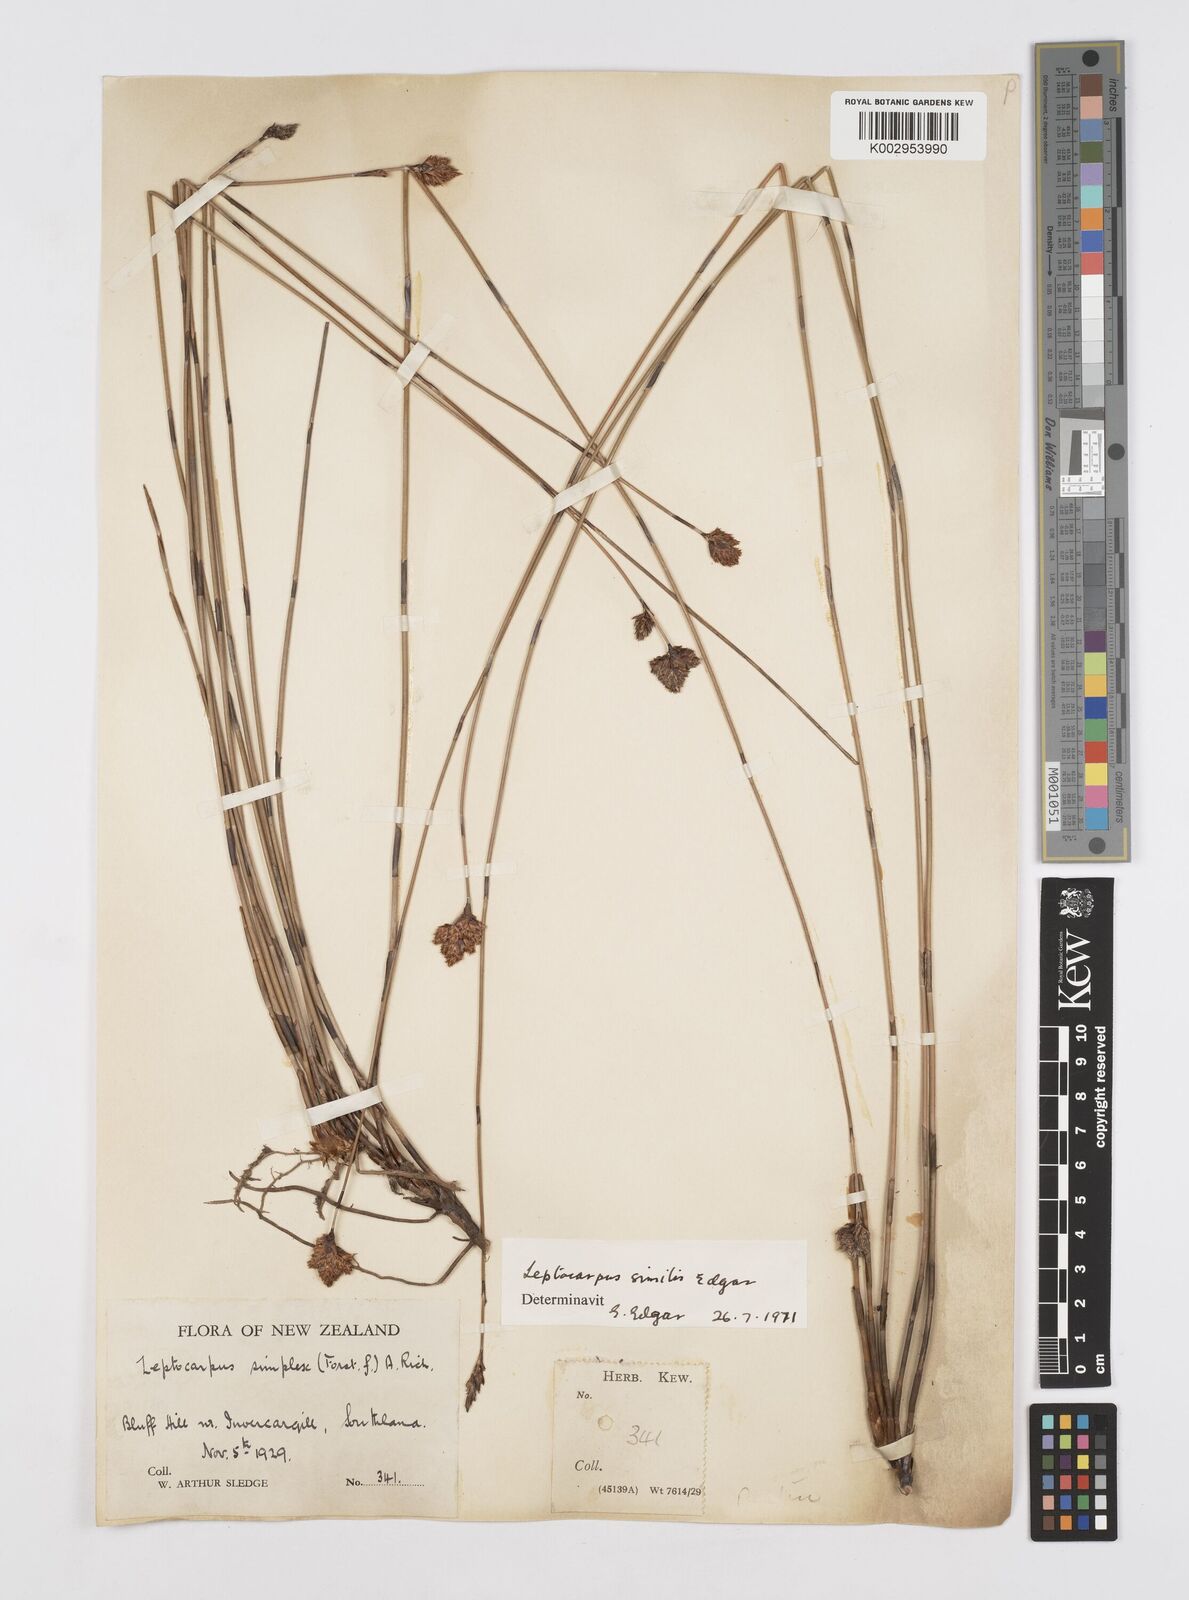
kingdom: Plantae
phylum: Tracheophyta
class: Liliopsida
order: Poales
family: Restionaceae
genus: Apodasmia
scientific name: Apodasmia similis
